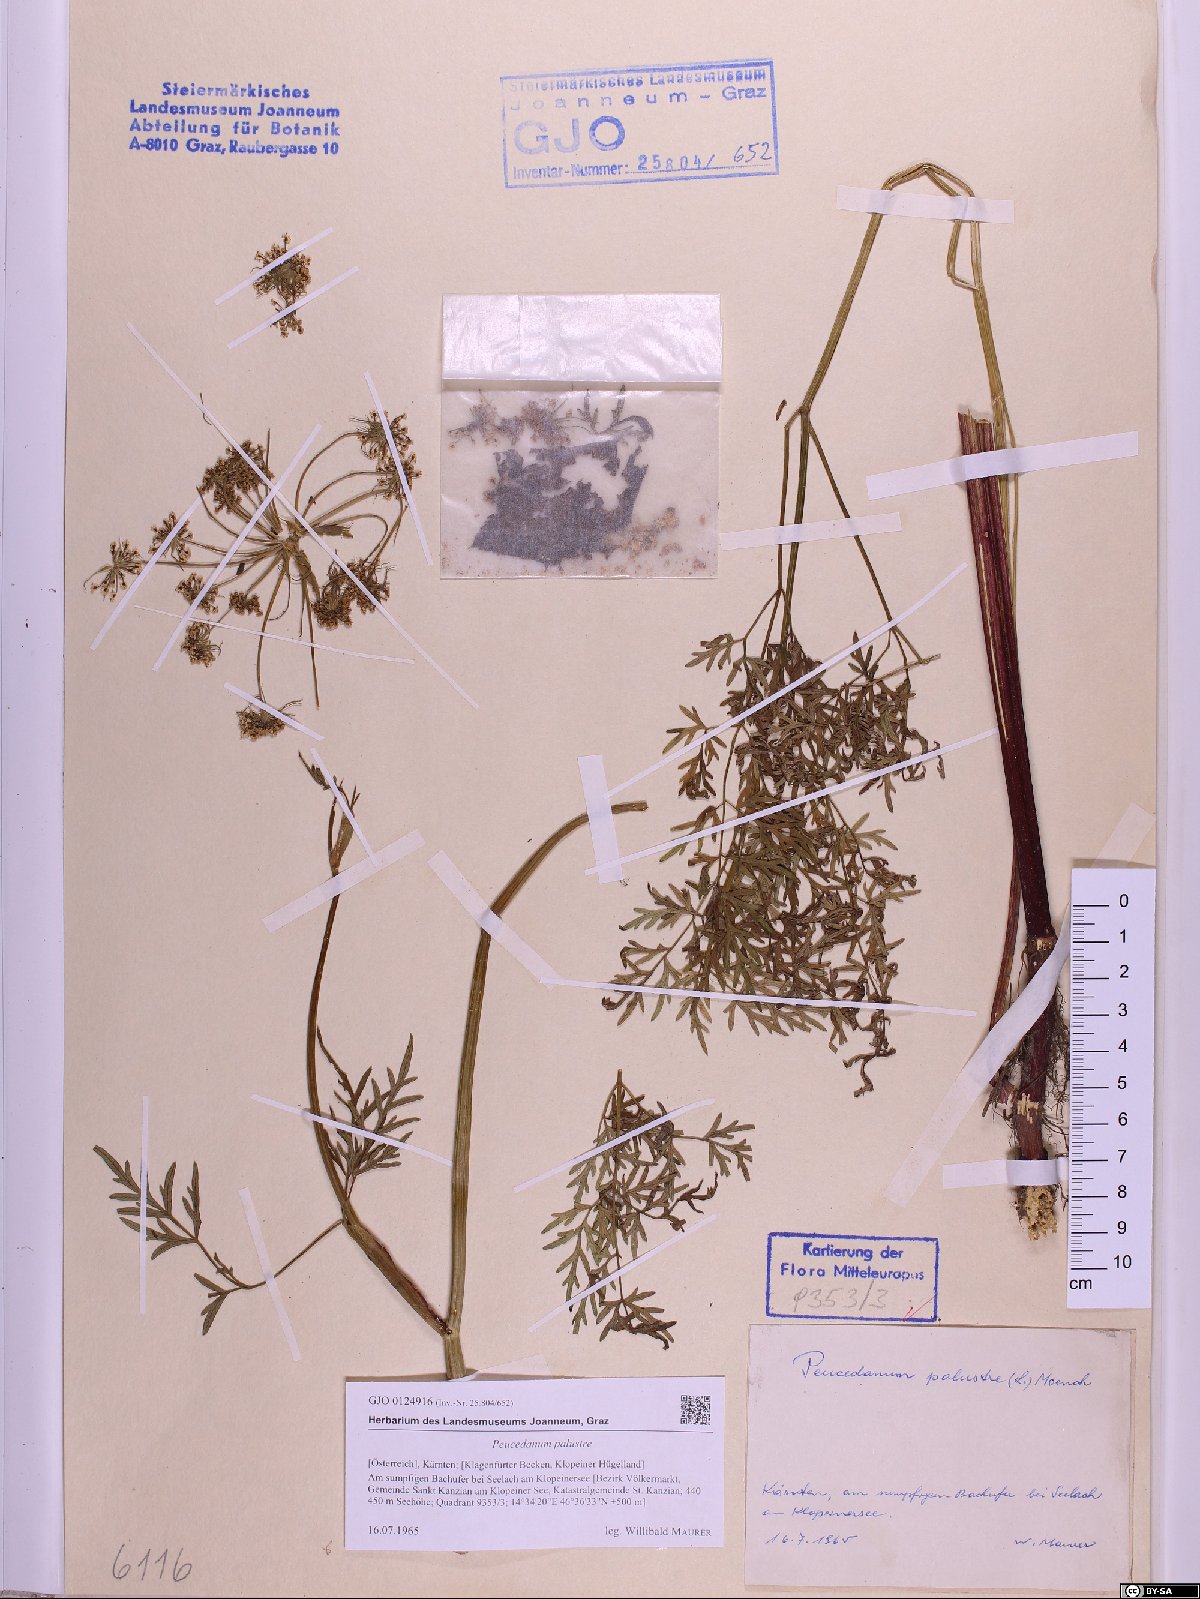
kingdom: Plantae
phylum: Tracheophyta
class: Magnoliopsida
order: Apiales
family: Apiaceae
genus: Thysselinum
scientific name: Thysselinum palustre
